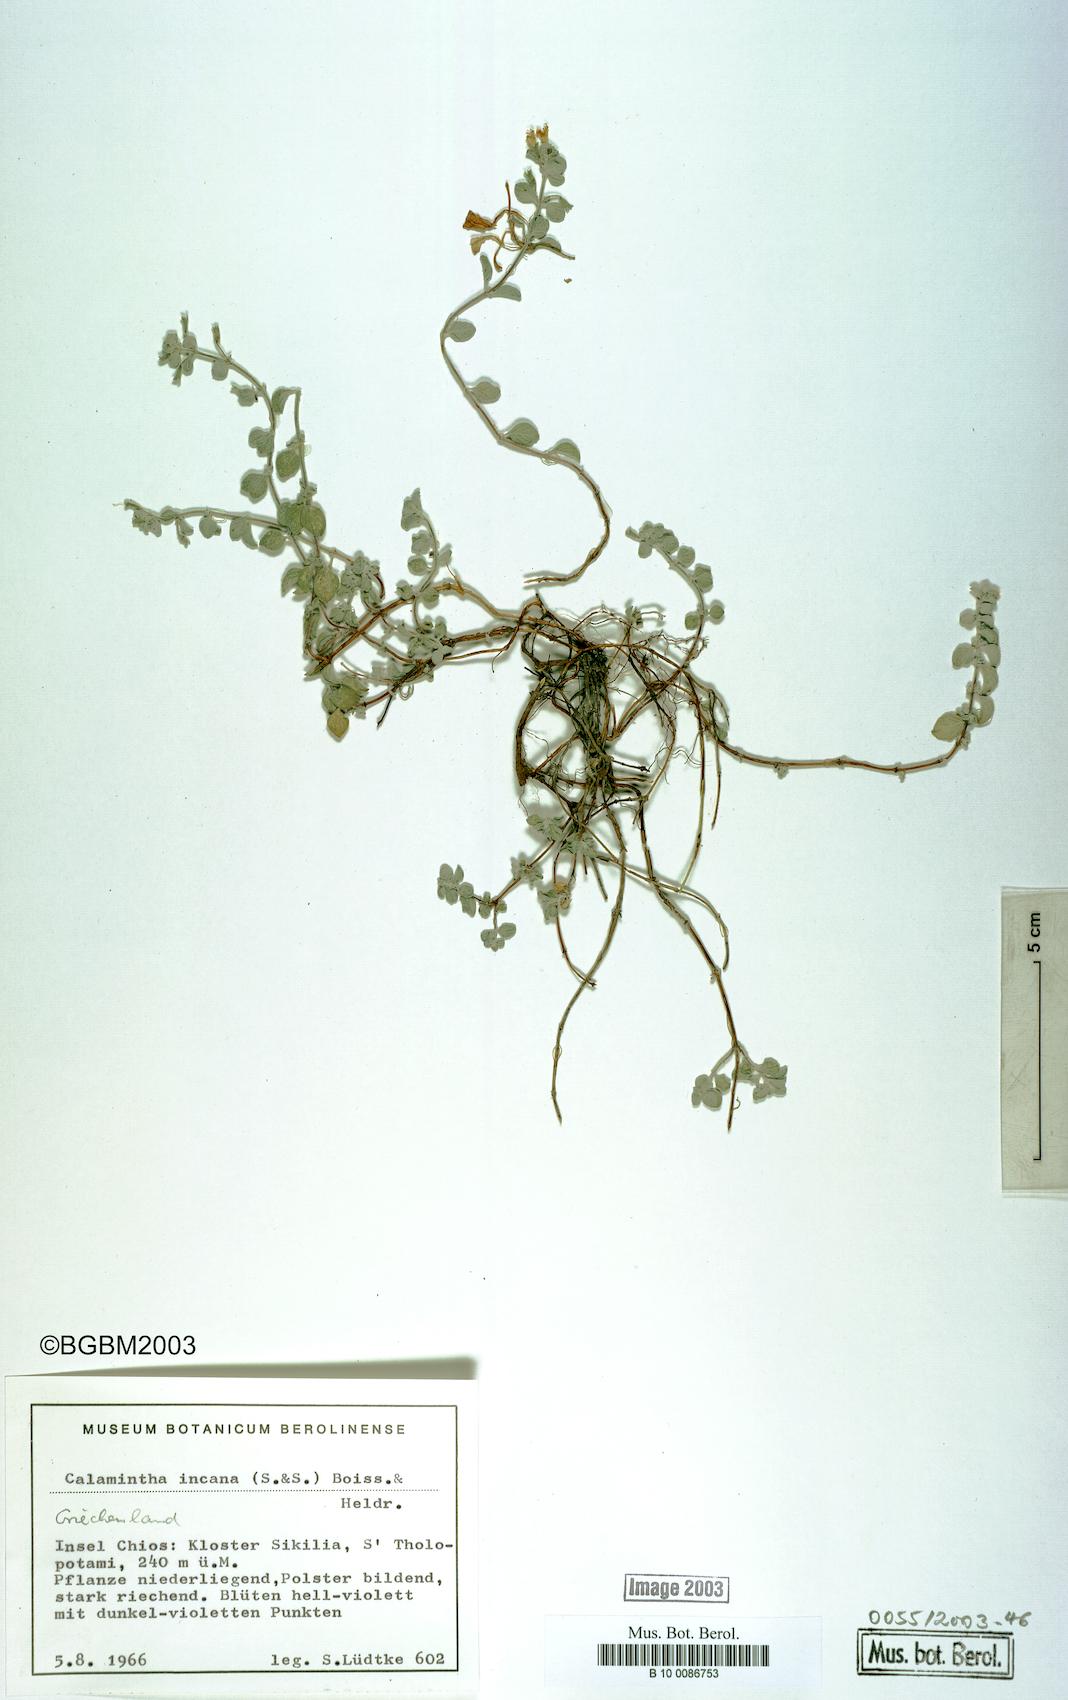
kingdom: Plantae
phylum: Tracheophyta
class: Magnoliopsida
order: Lamiales
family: Lamiaceae
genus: Clinopodium
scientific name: Clinopodium brevifolium
